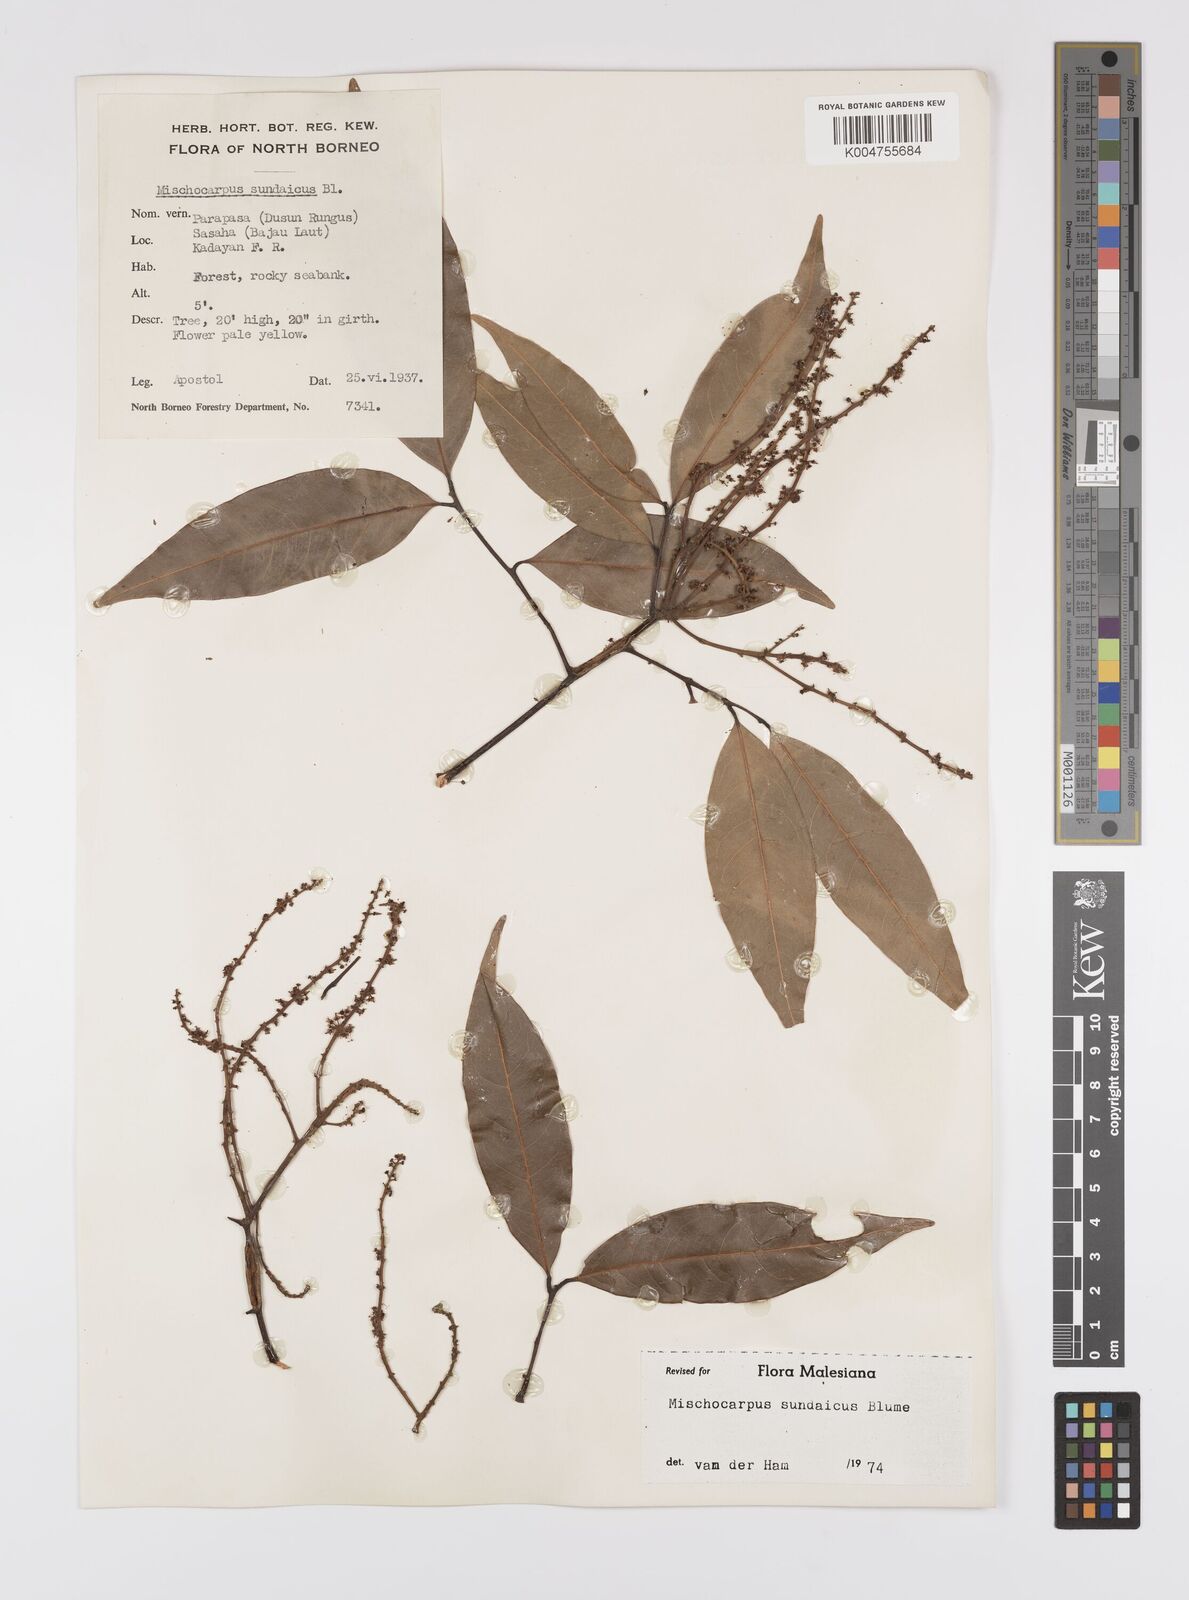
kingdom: Plantae
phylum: Tracheophyta
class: Magnoliopsida
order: Sapindales
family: Sapindaceae
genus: Mischocarpus
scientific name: Mischocarpus sundaicus
